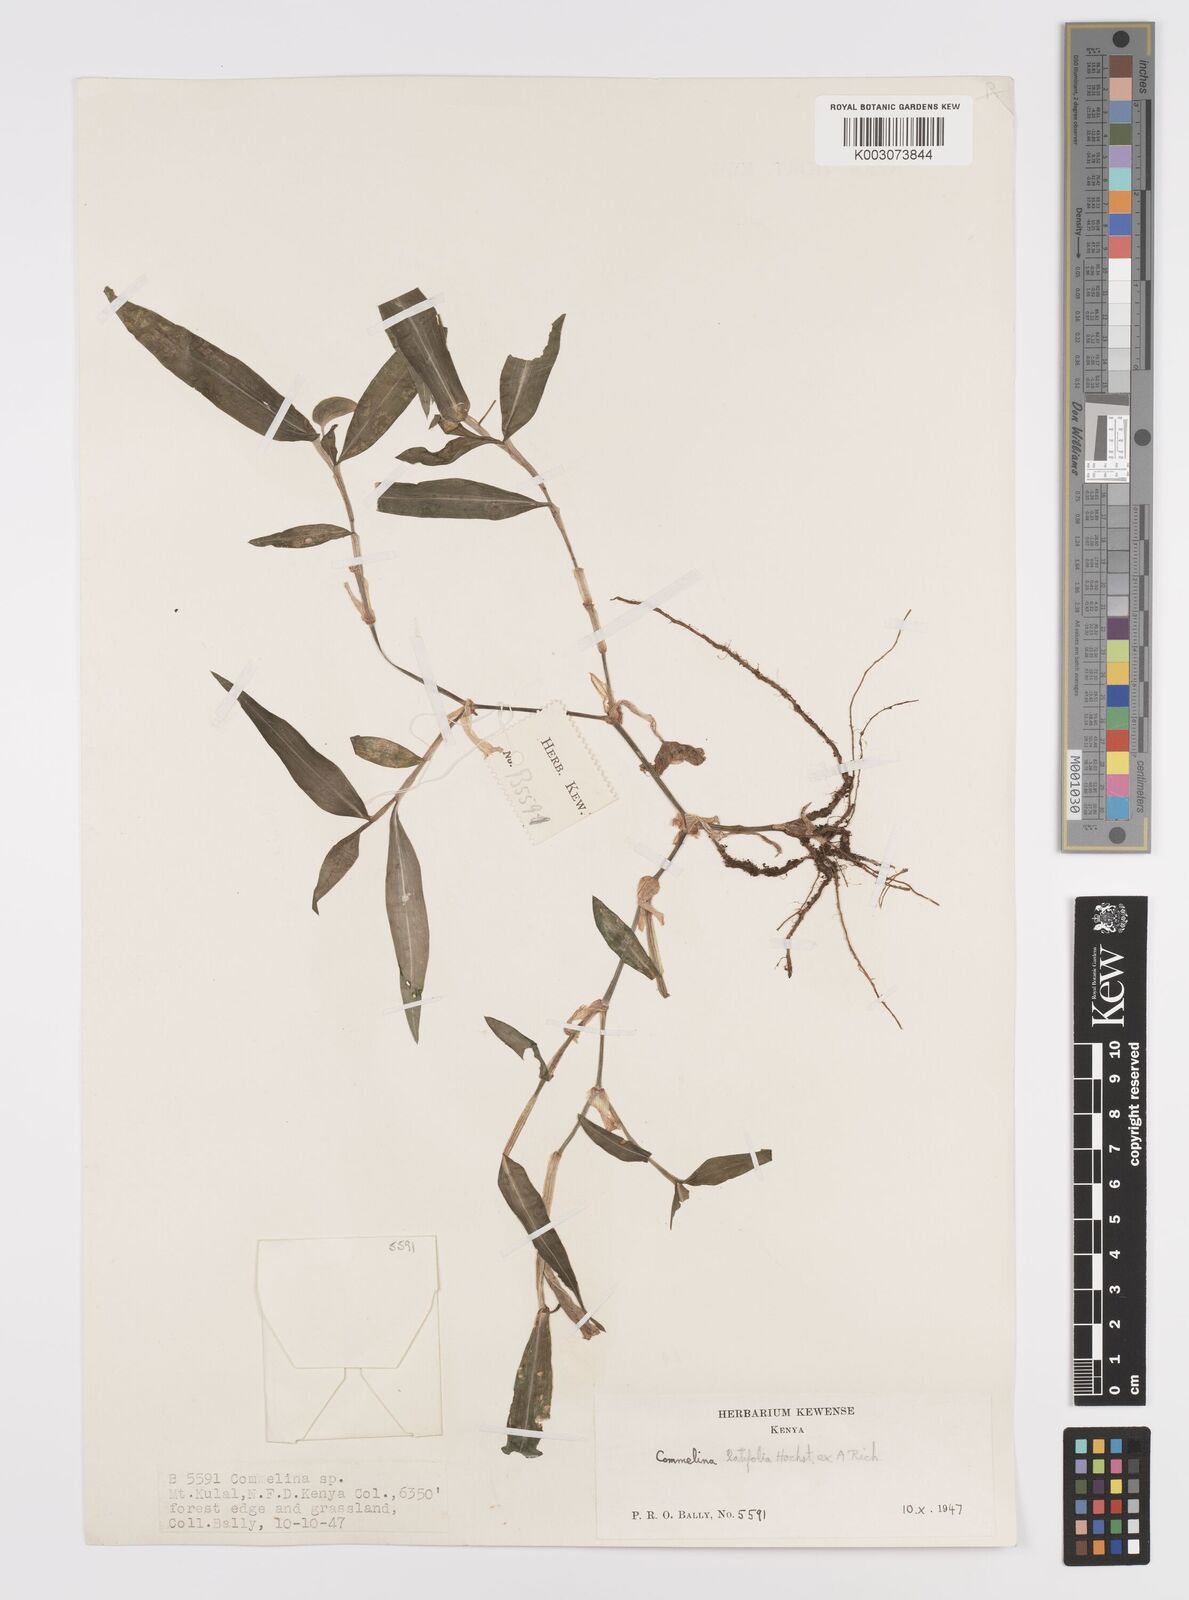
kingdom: Plantae
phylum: Tracheophyta
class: Liliopsida
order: Commelinales
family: Commelinaceae
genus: Commelina
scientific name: Commelina latifolia
